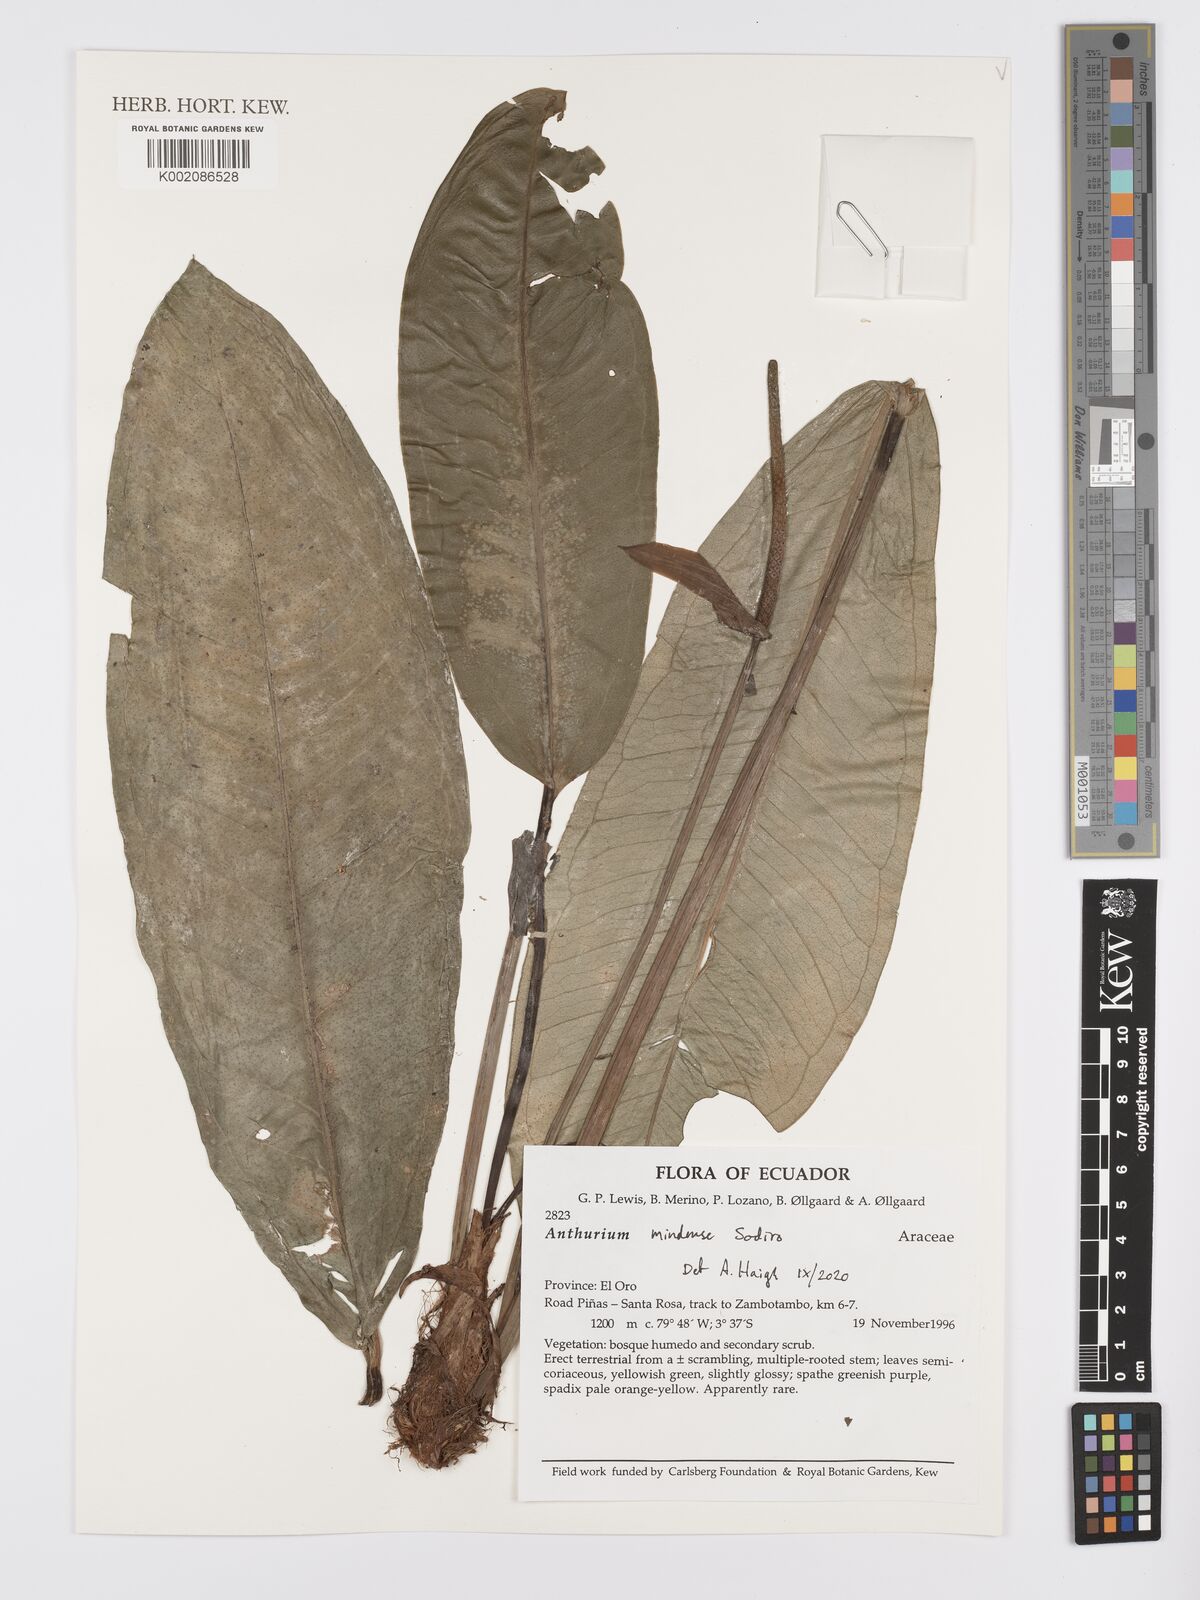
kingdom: Plantae
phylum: Tracheophyta
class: Liliopsida
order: Alismatales
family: Araceae
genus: Anthurium
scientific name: Anthurium mindense
